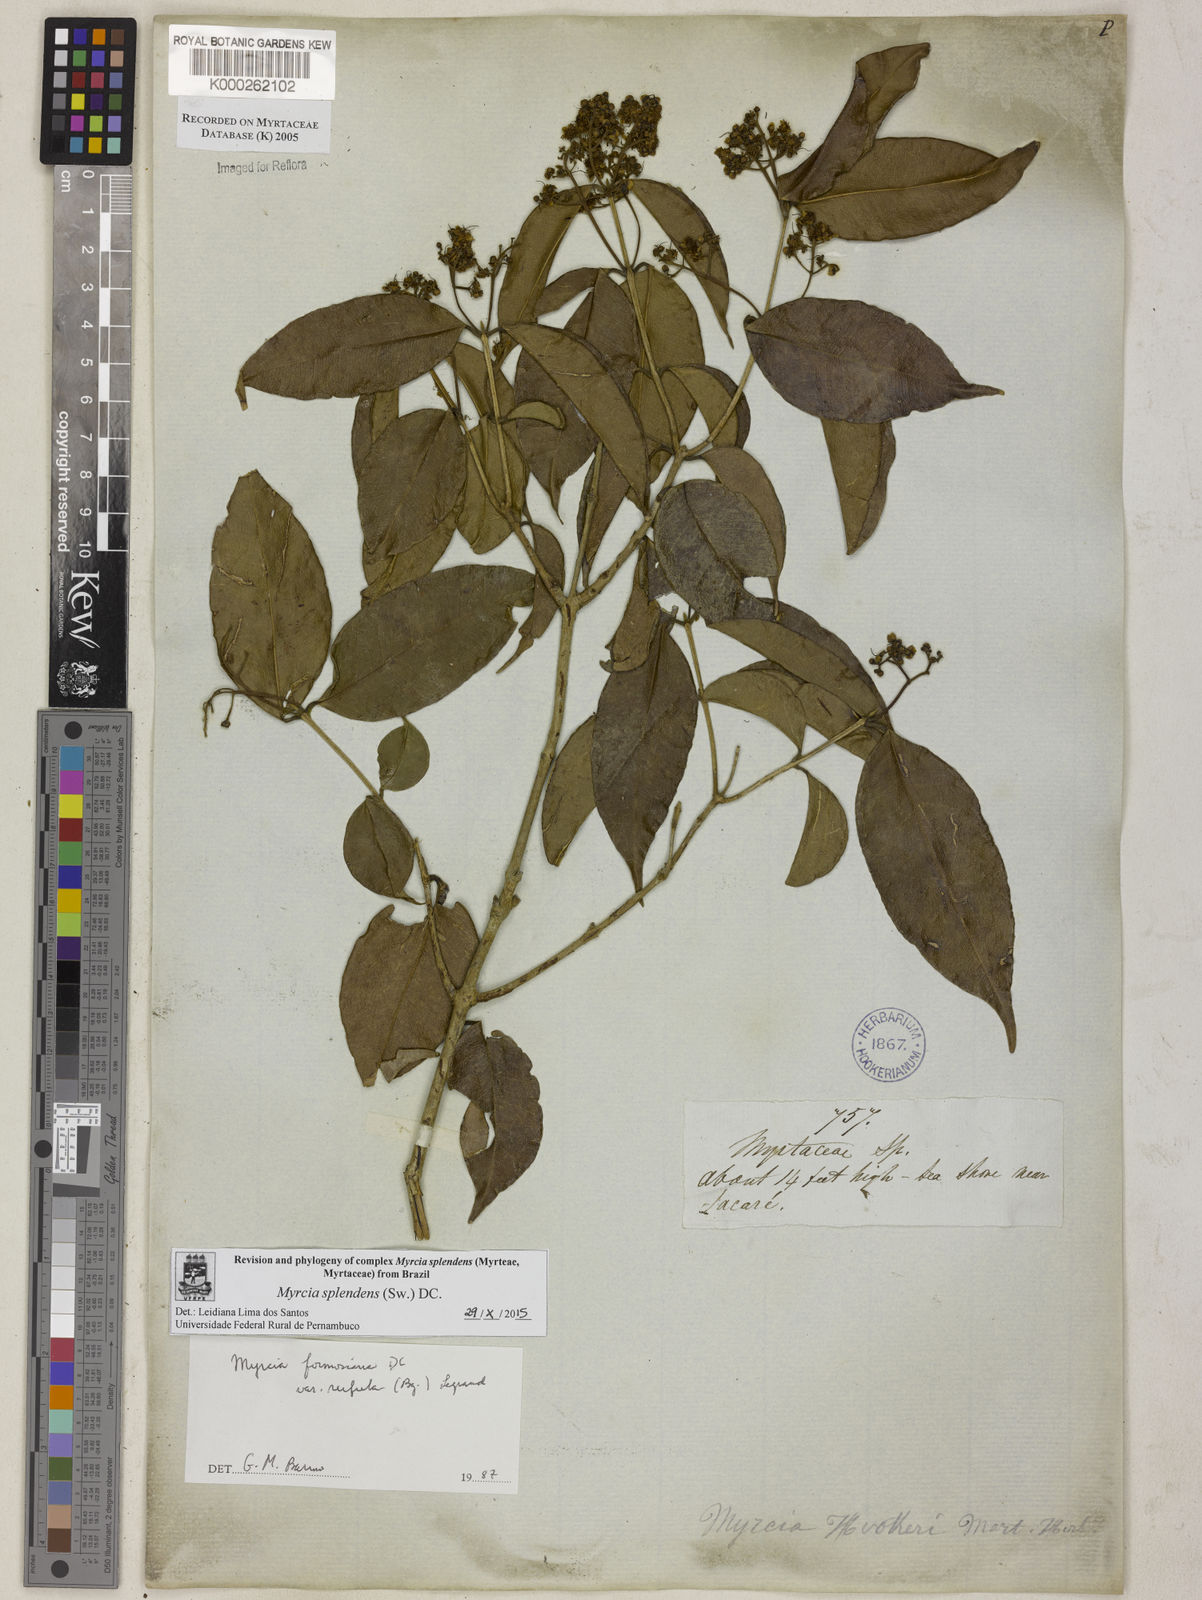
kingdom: Plantae
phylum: Tracheophyta
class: Magnoliopsida
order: Myrtales
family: Myrtaceae
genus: Myrcia
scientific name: Myrcia splendens
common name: Surinam cherry
